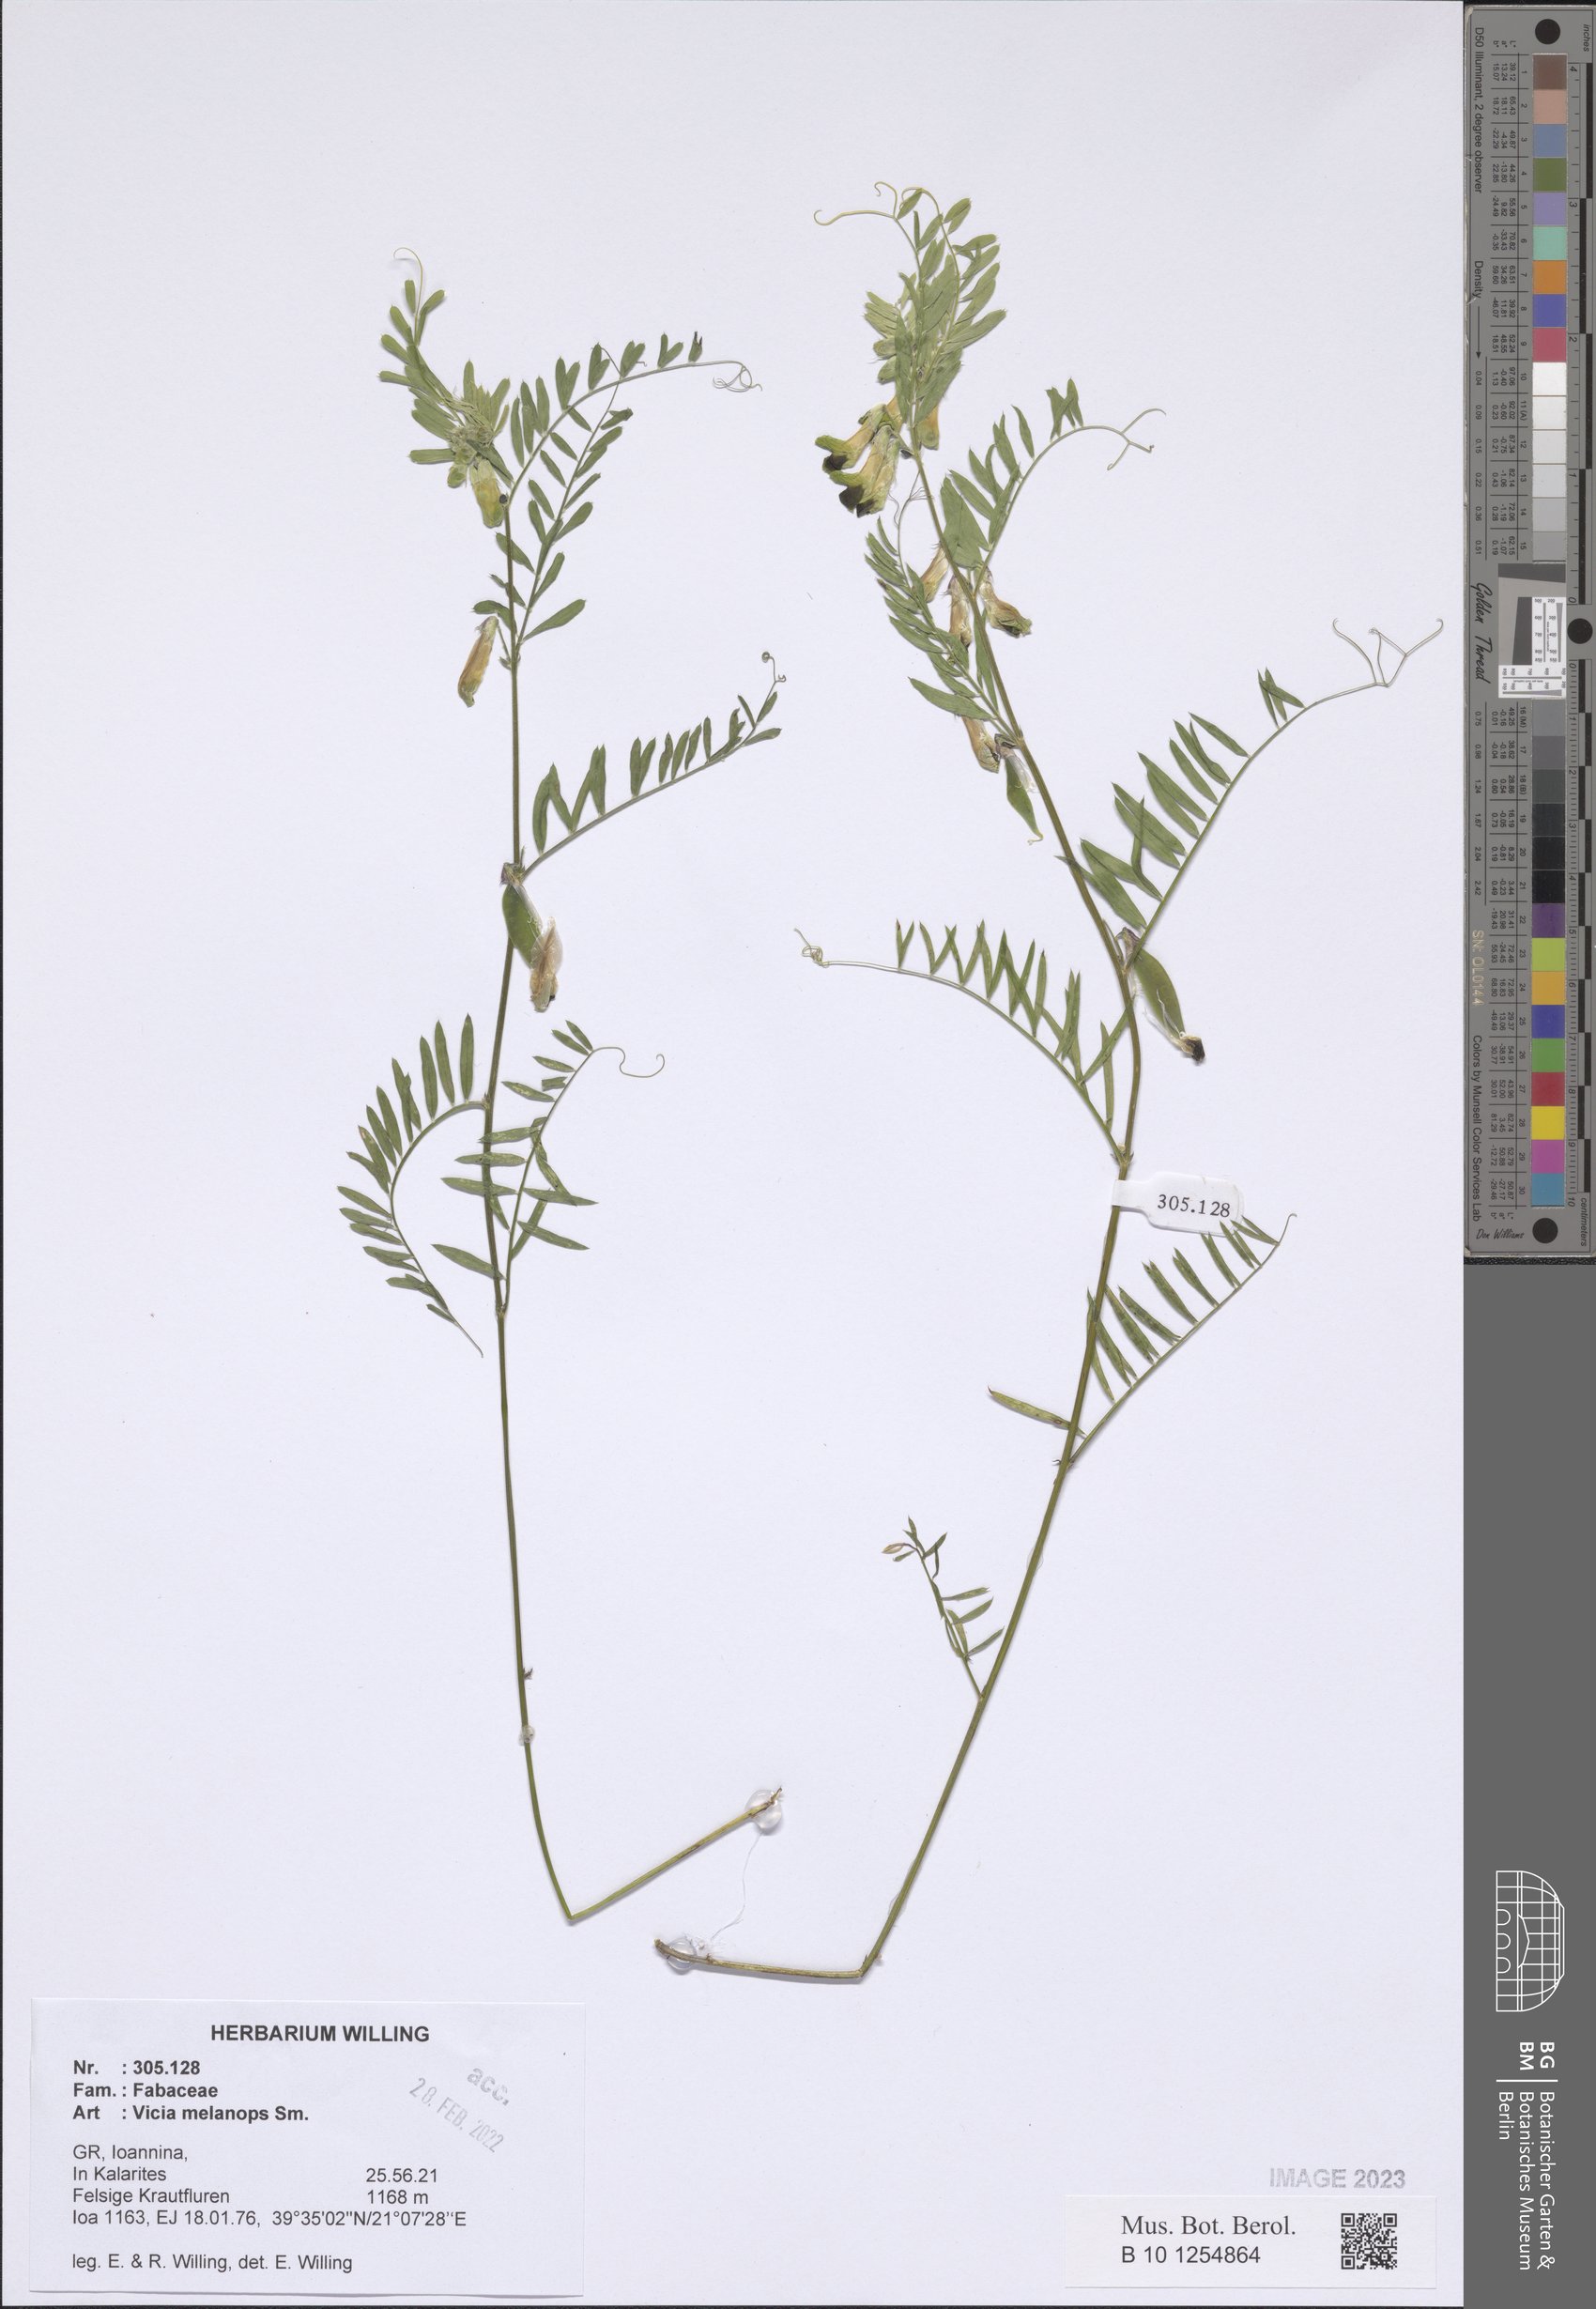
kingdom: Plantae
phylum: Tracheophyta
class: Magnoliopsida
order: Fabales
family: Fabaceae
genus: Vicia
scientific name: Vicia melanops
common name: Black-eyed vetch
